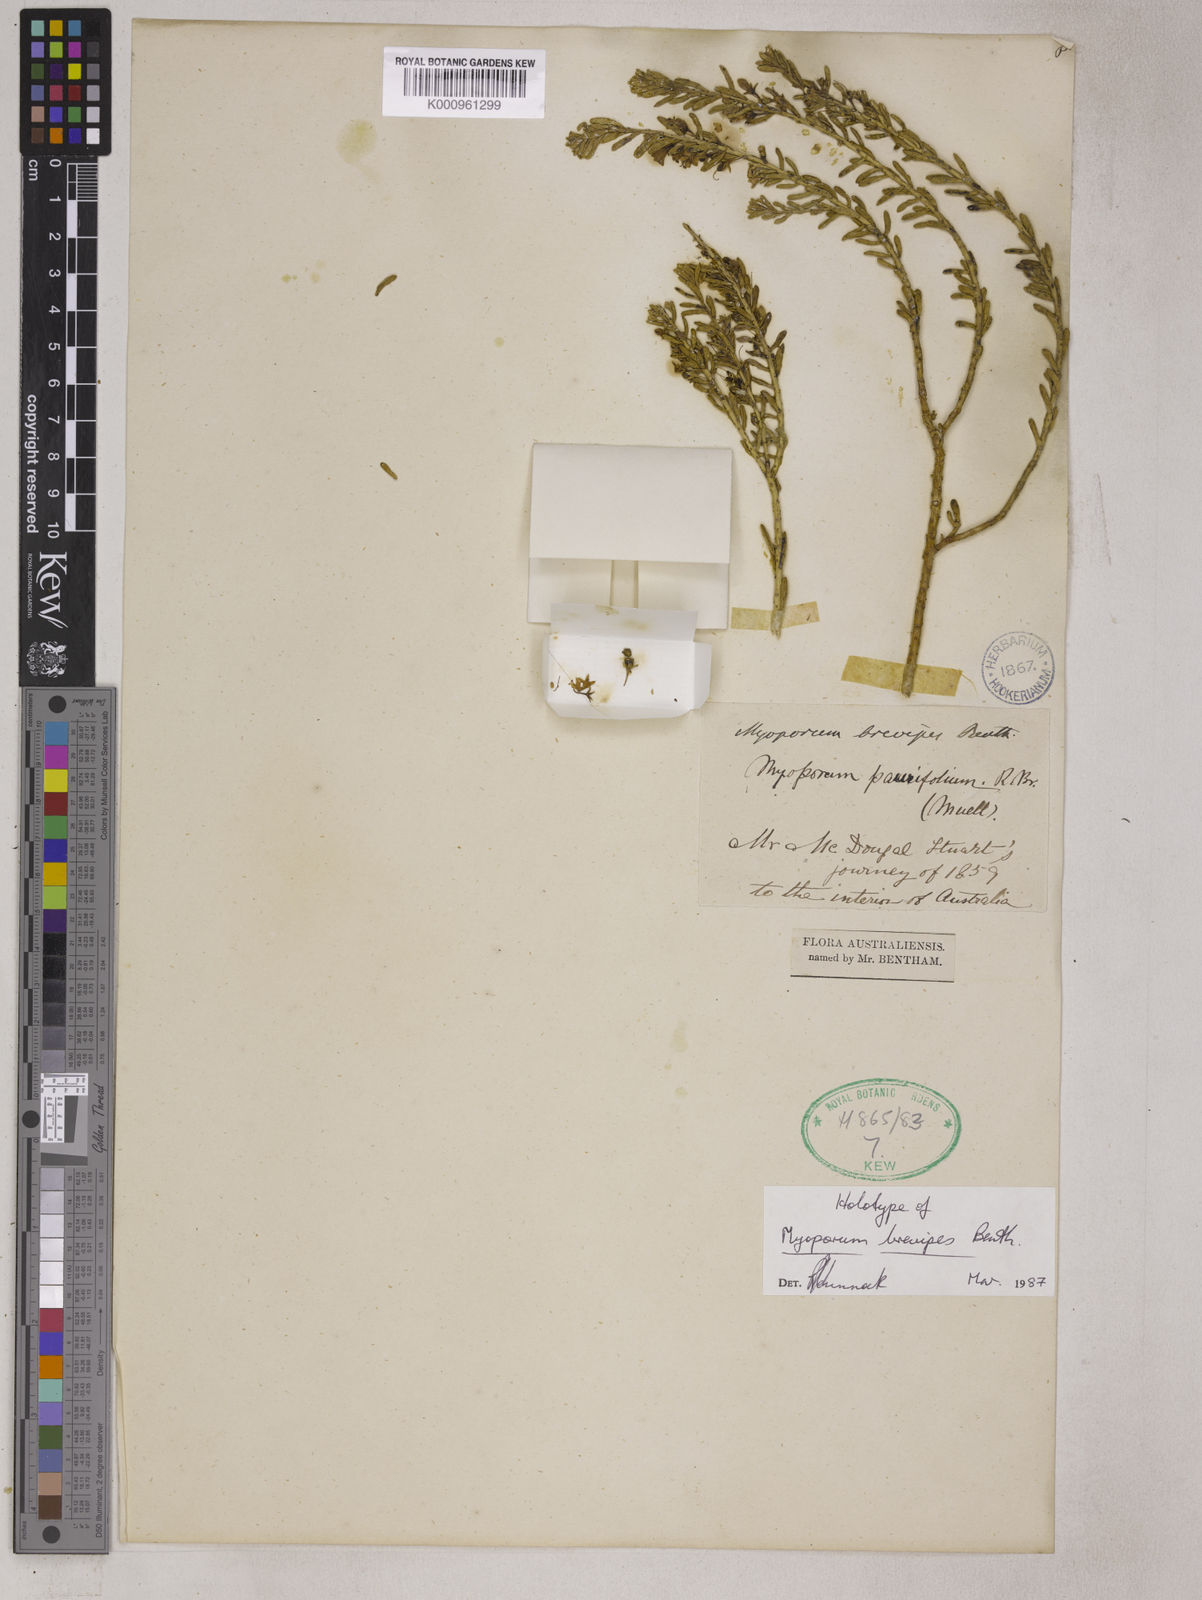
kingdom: Plantae
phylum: Tracheophyta
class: Magnoliopsida
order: Lamiales
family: Scrophulariaceae
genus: Myoporum
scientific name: Myoporum brevipes
